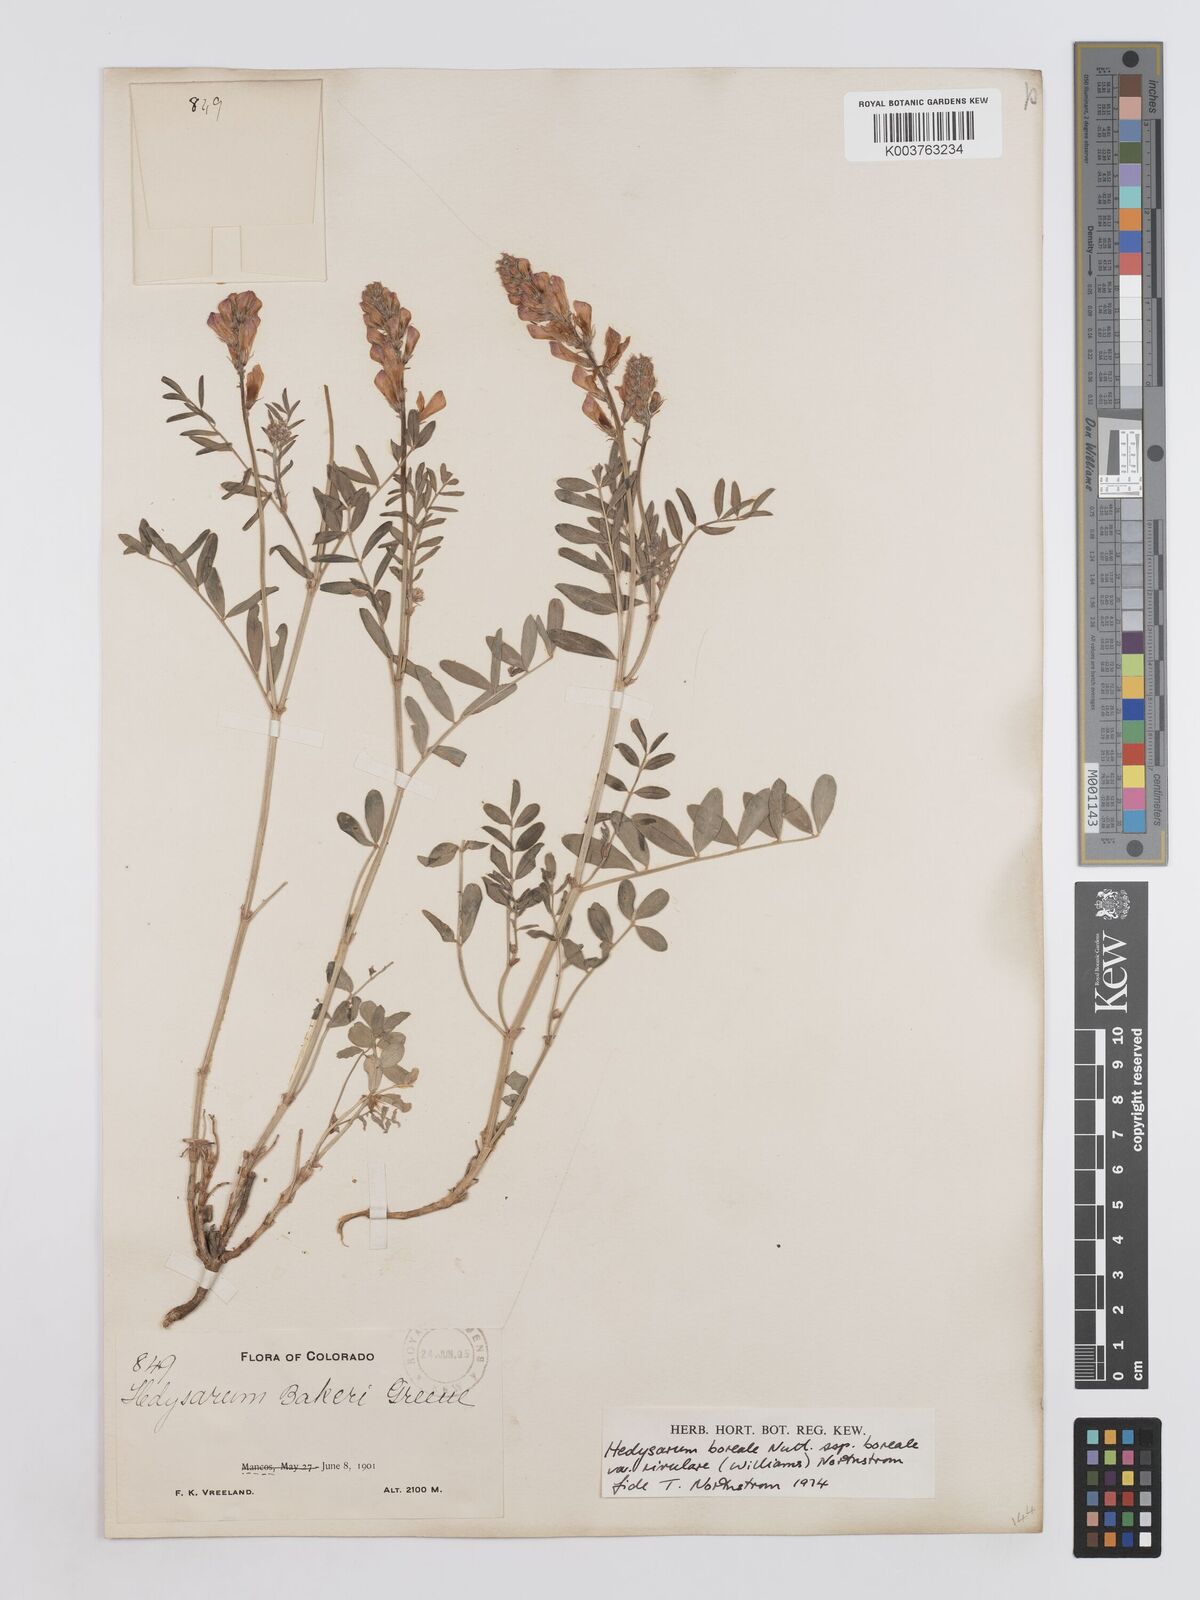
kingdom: Plantae
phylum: Tracheophyta
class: Magnoliopsida
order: Fabales
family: Fabaceae
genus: Hedysarum
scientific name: Hedysarum boreale
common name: Northern sweet-vetch
